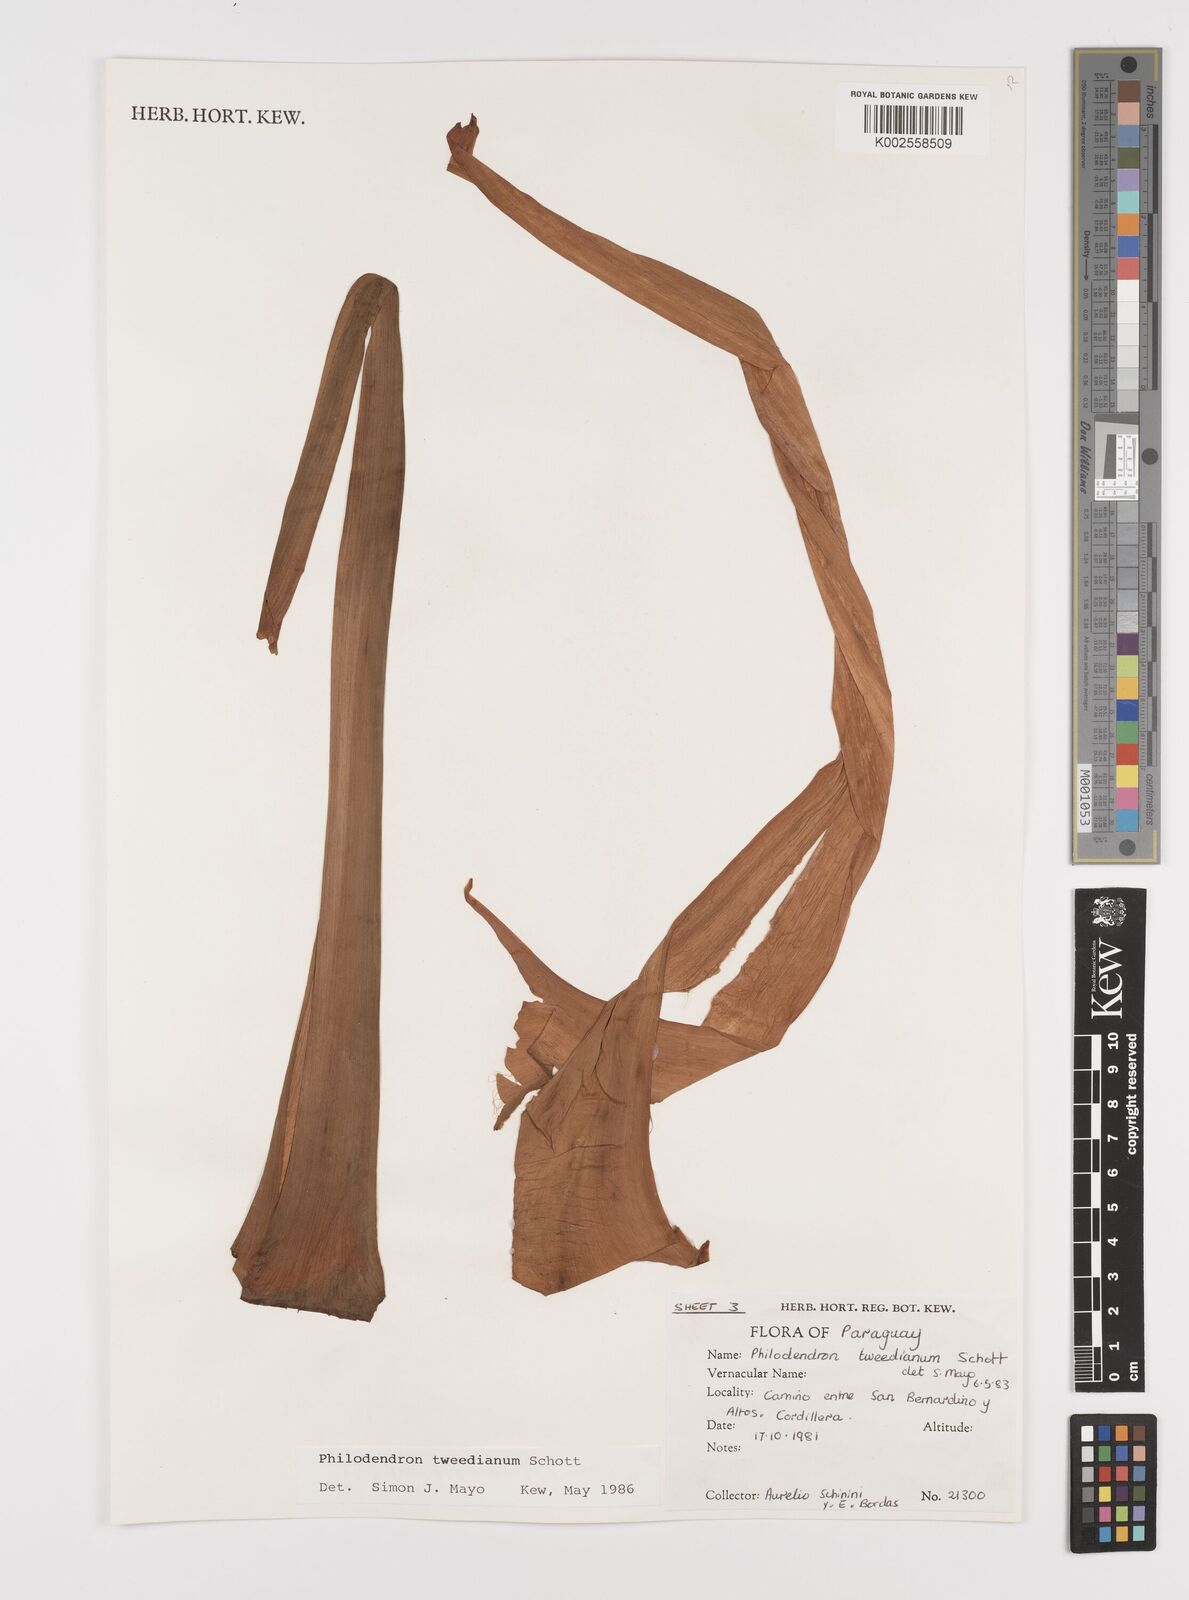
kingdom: Plantae
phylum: Tracheophyta
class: Liliopsida
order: Alismatales
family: Araceae
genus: Thaumatophyllum
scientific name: Thaumatophyllum tweedieanum
